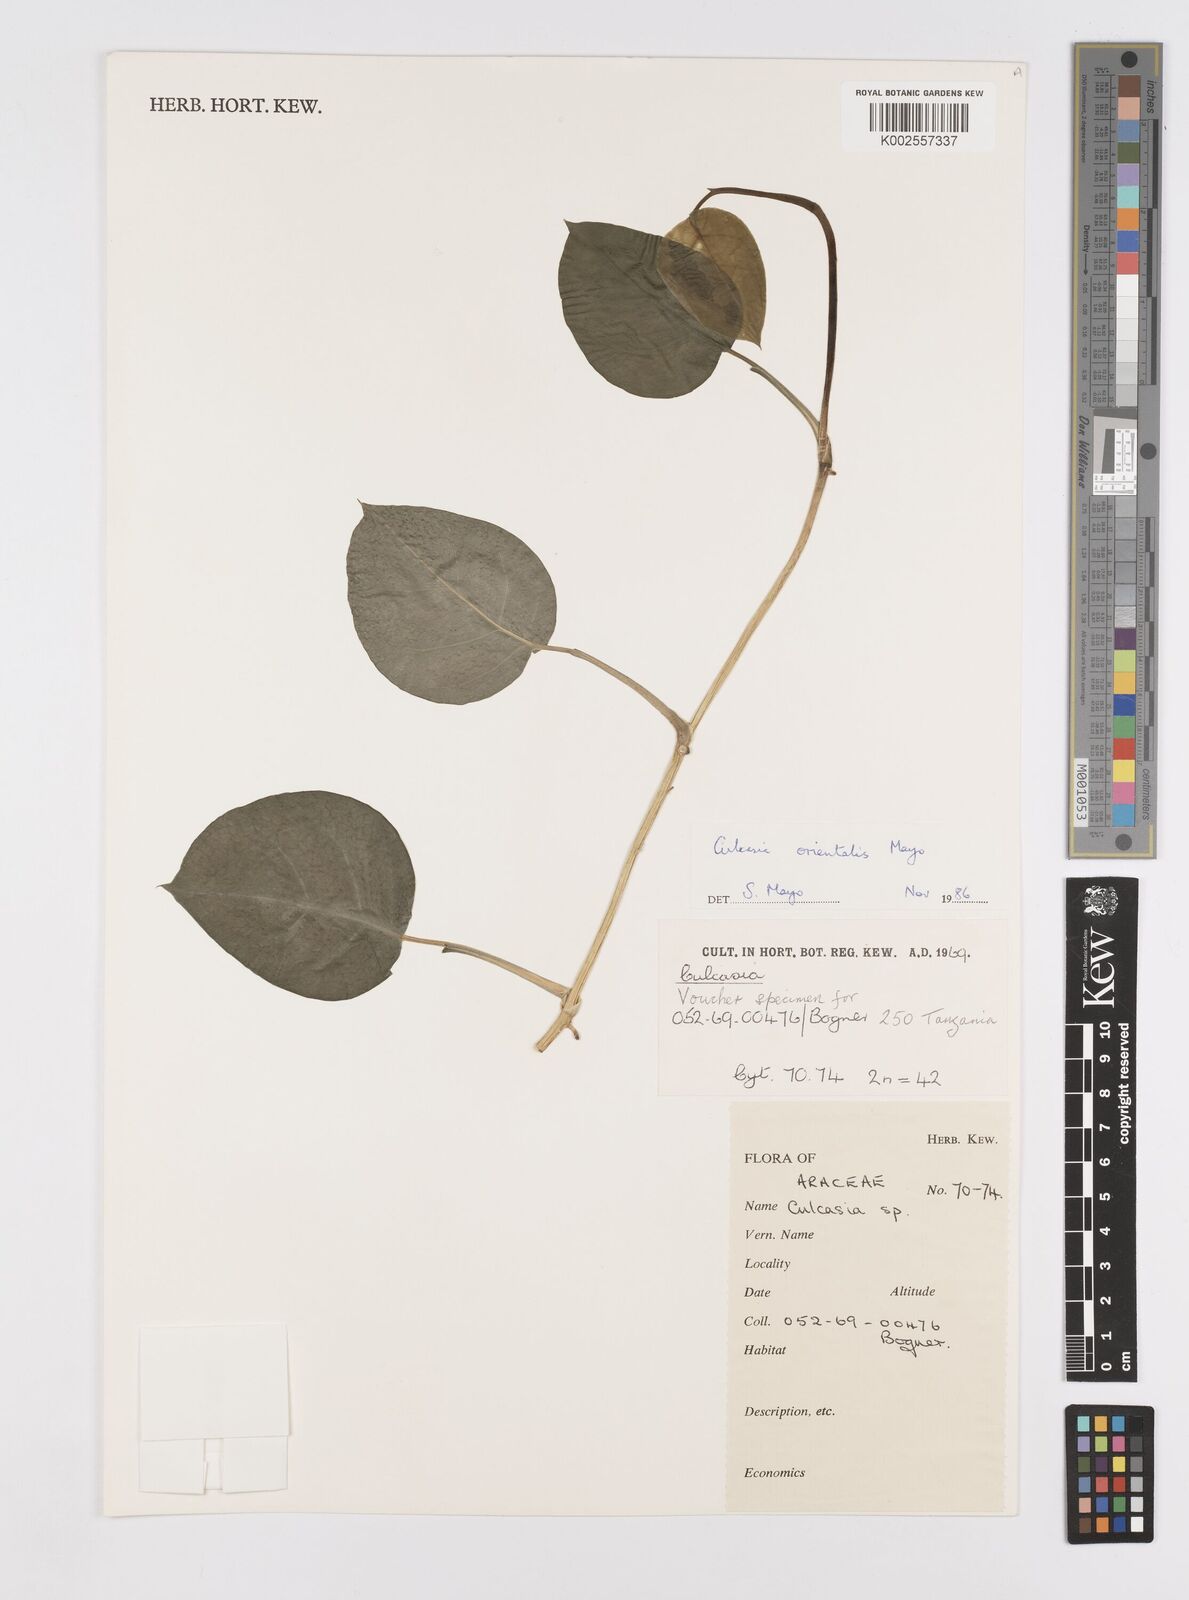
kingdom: Plantae
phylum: Tracheophyta
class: Liliopsida
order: Alismatales
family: Araceae
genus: Culcasia
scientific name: Culcasia orientalis
